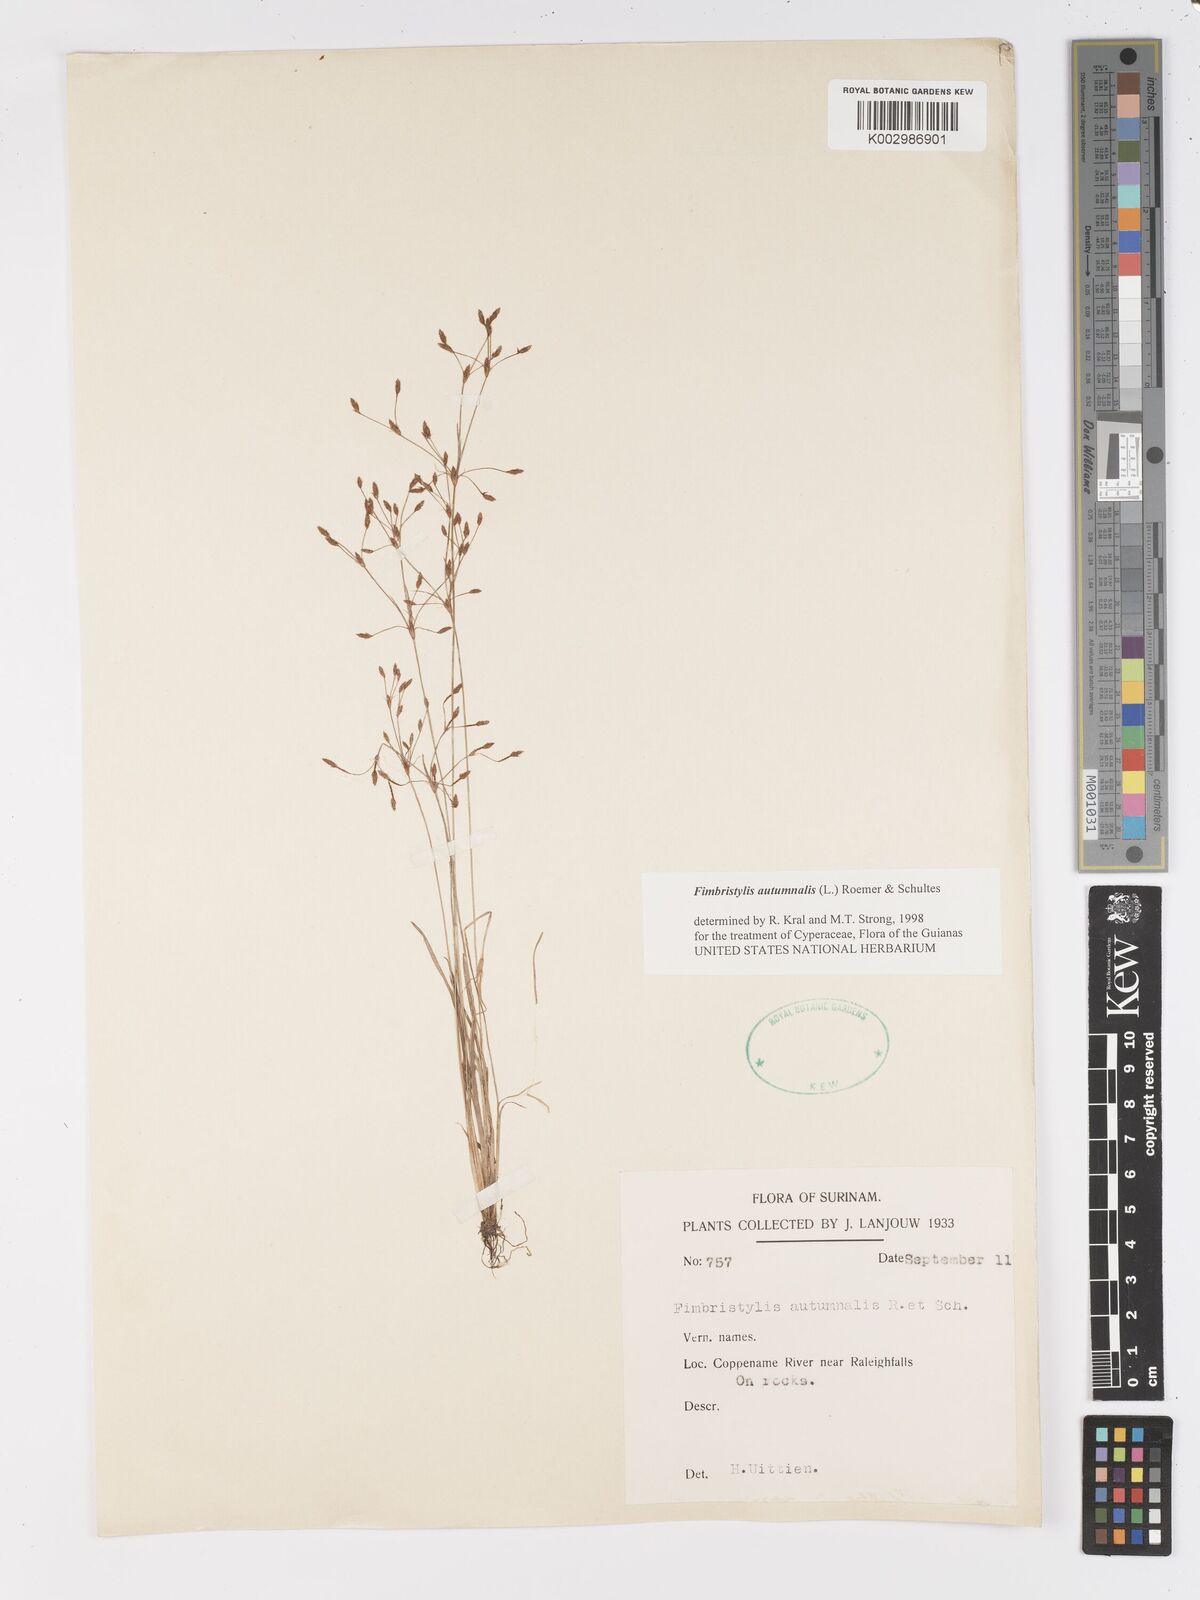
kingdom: Plantae
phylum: Tracheophyta
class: Liliopsida
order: Poales
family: Cyperaceae
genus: Fimbristylis
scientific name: Fimbristylis autumnalis
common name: Slender fimbristylis
